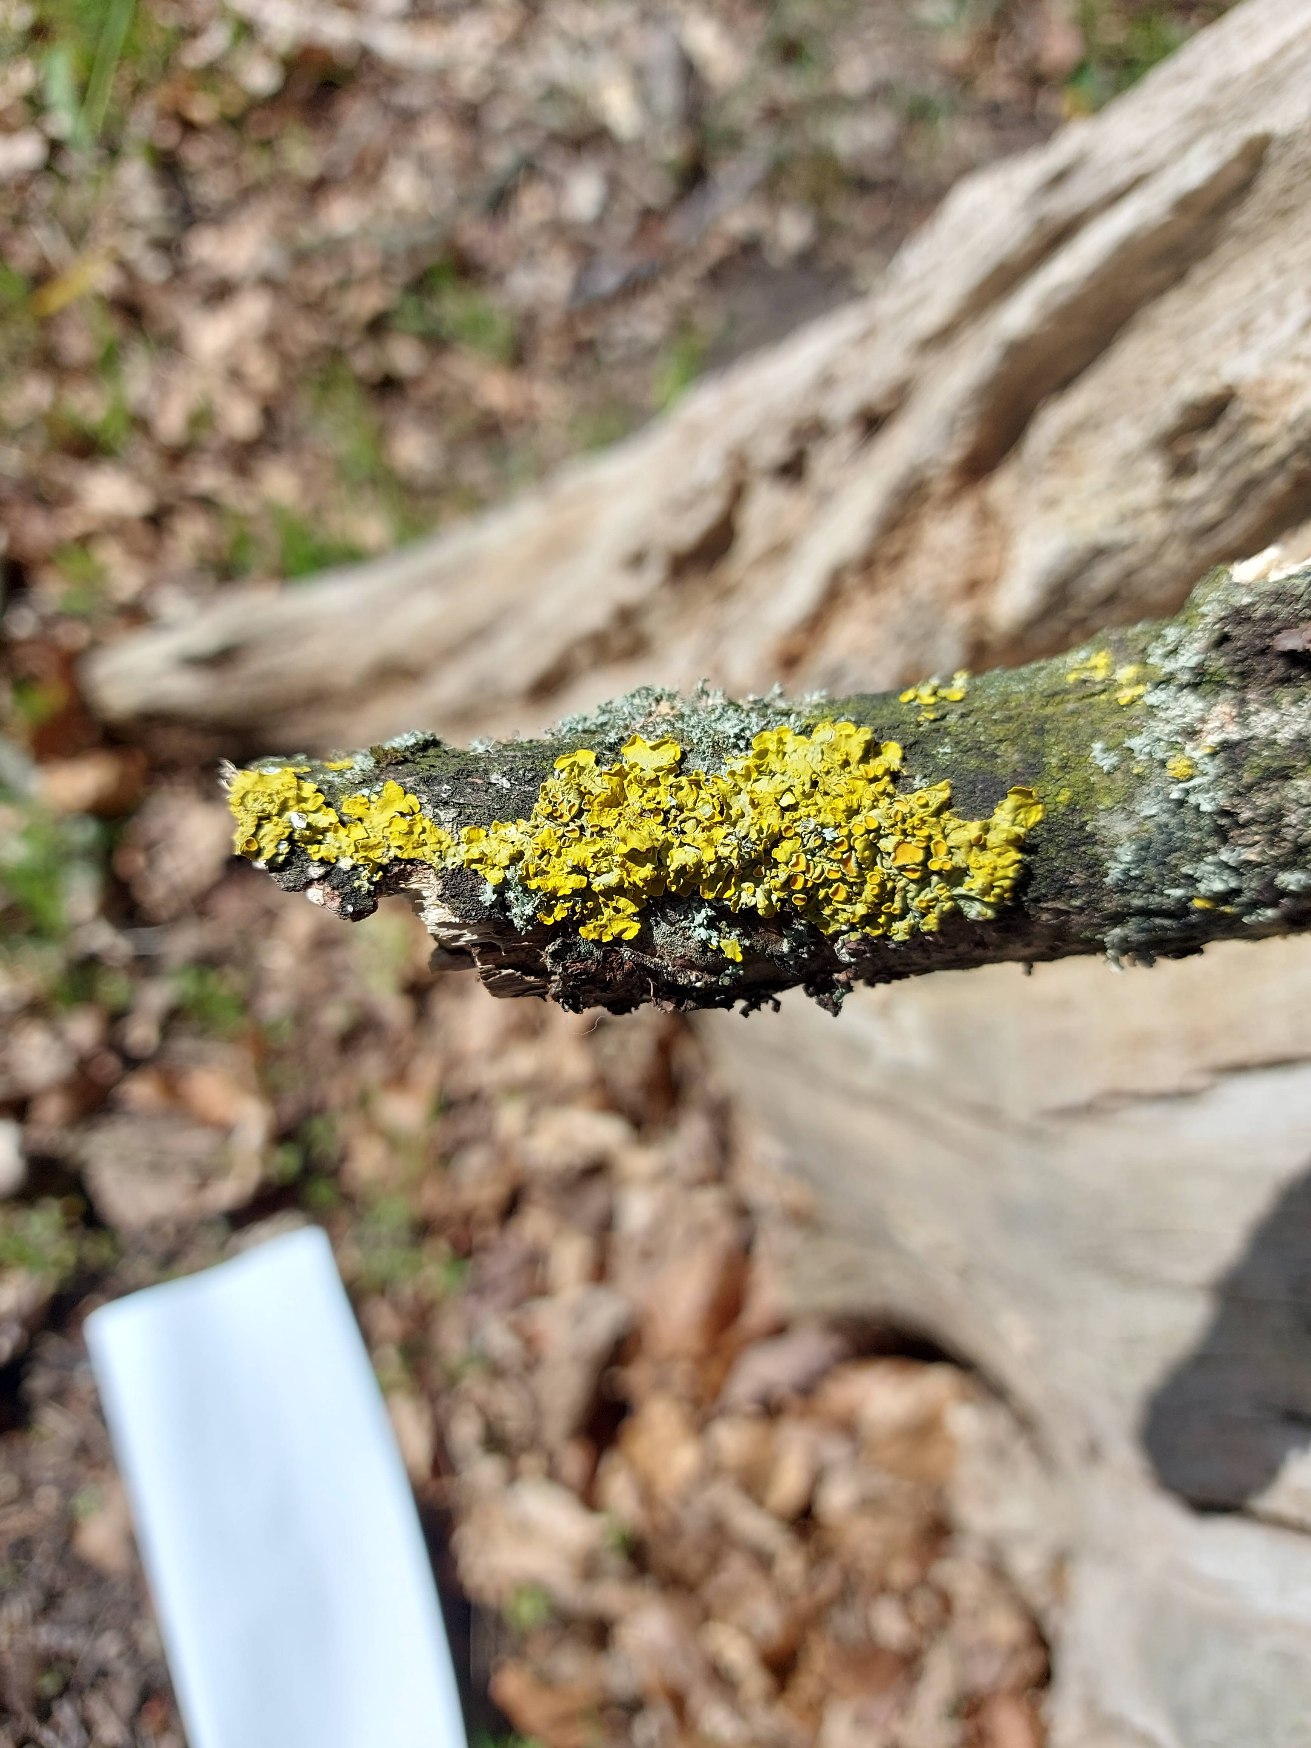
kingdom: Fungi
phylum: Ascomycota
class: Lecanoromycetes
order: Teloschistales
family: Teloschistaceae
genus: Xanthoria
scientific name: Xanthoria parietina
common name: Almindelig væggelav
